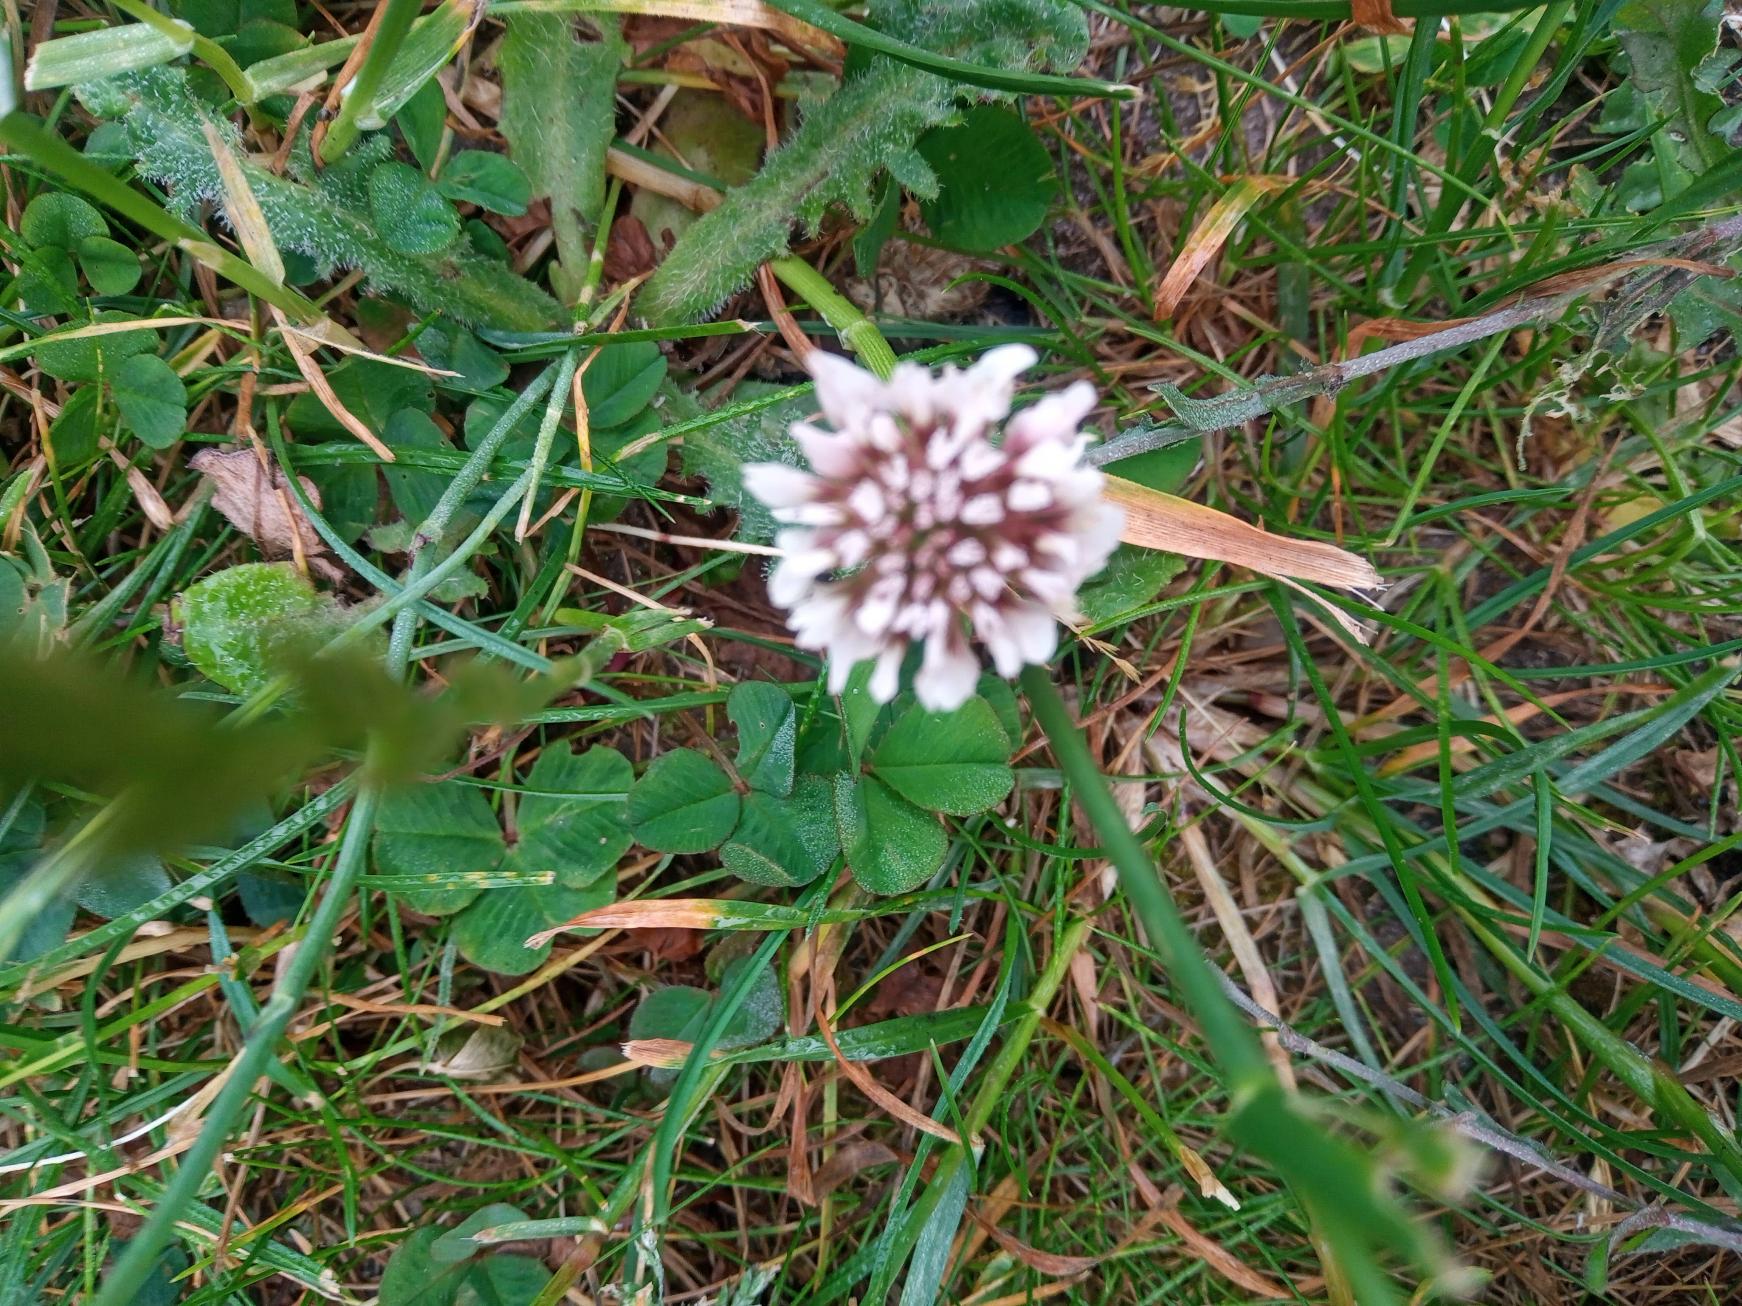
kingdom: Plantae
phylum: Tracheophyta
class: Magnoliopsida
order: Fabales
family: Fabaceae
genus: Trifolium
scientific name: Trifolium repens
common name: Hvid-kløver
